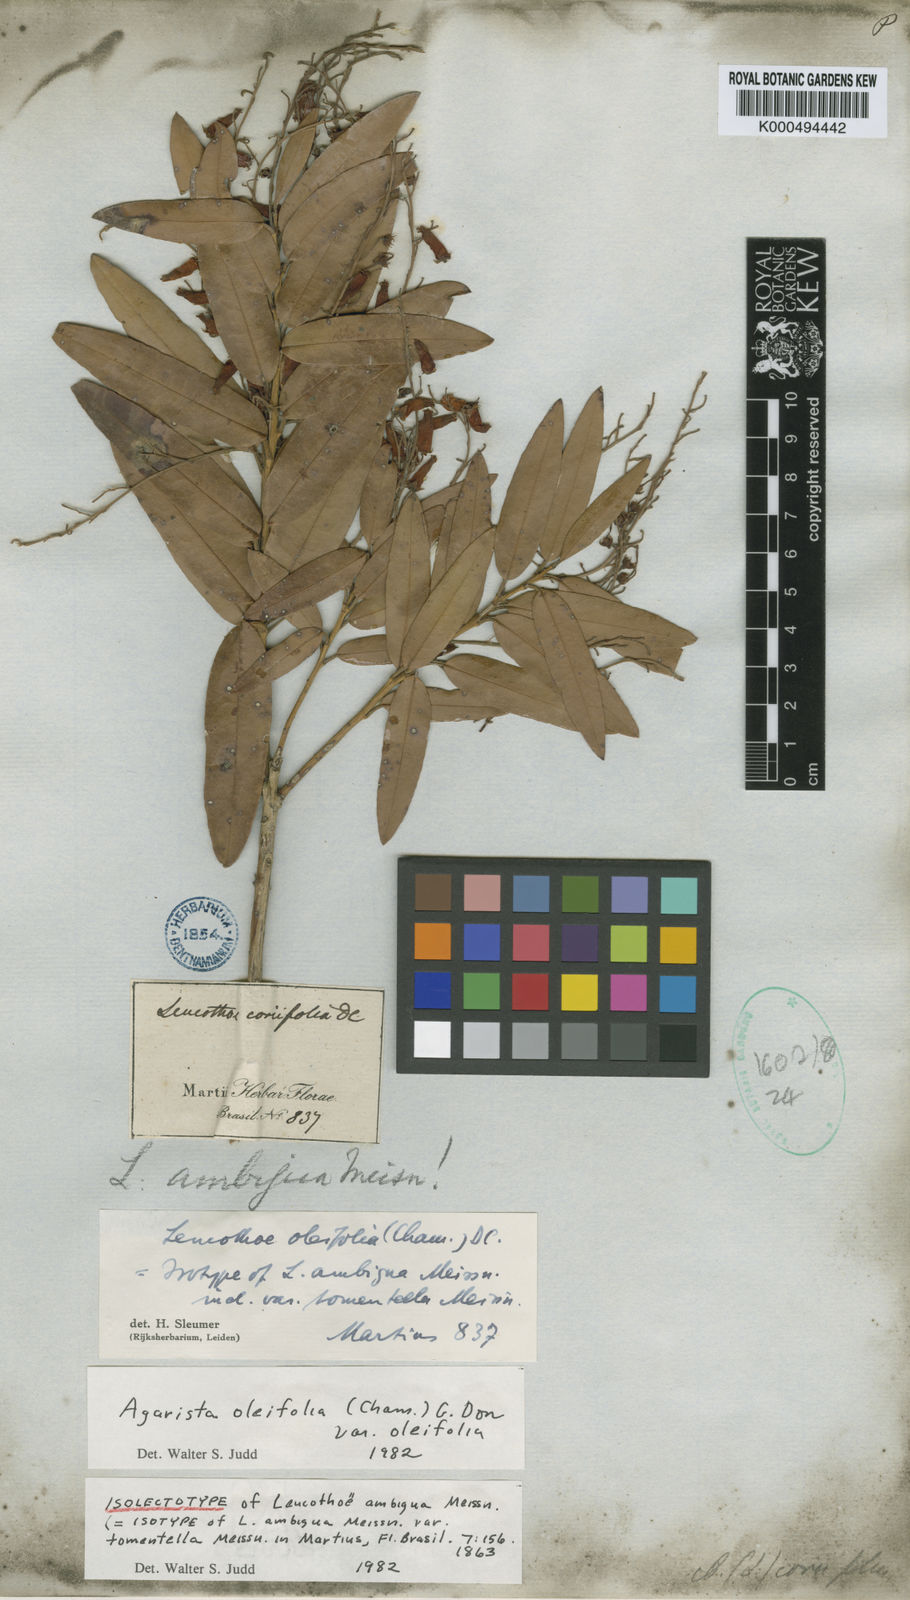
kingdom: Plantae
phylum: Tracheophyta
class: Magnoliopsida
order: Ericales
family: Ericaceae
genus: Agarista
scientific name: Agarista oleifolia
